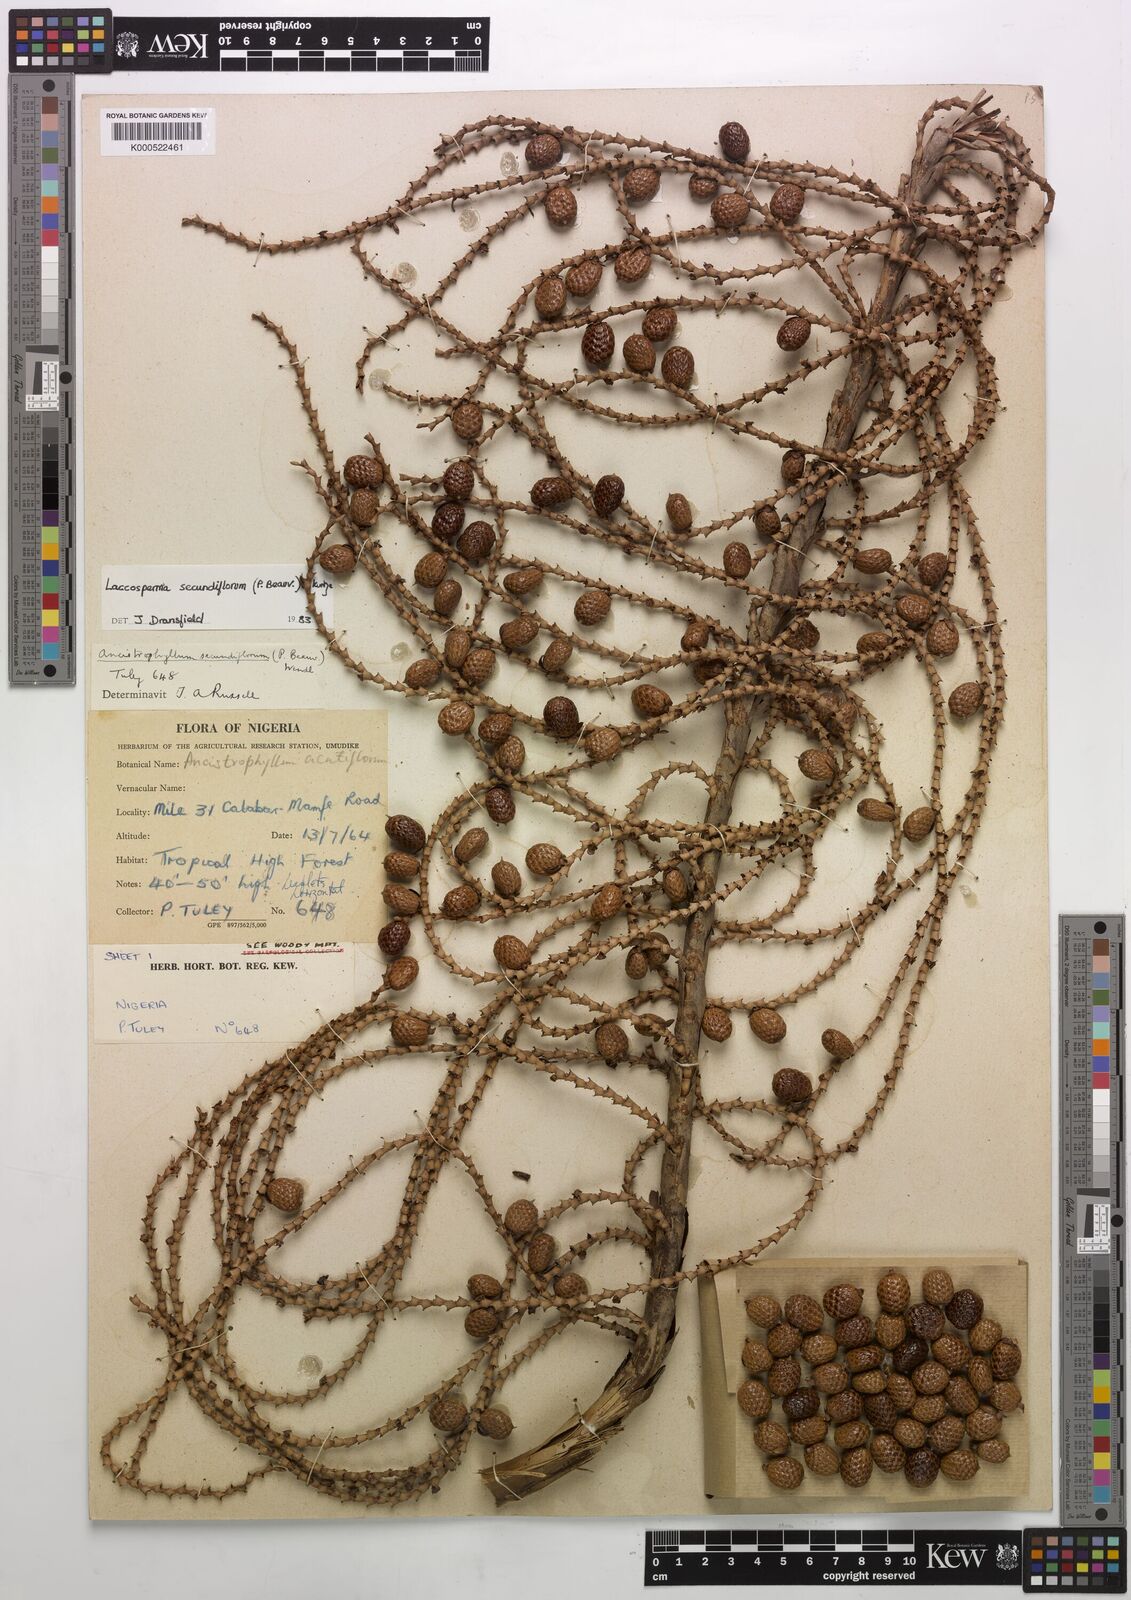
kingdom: Plantae
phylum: Tracheophyta
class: Liliopsida
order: Arecales
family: Arecaceae
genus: Laccosperma
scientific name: Laccosperma secundiflorum
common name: Rattan
